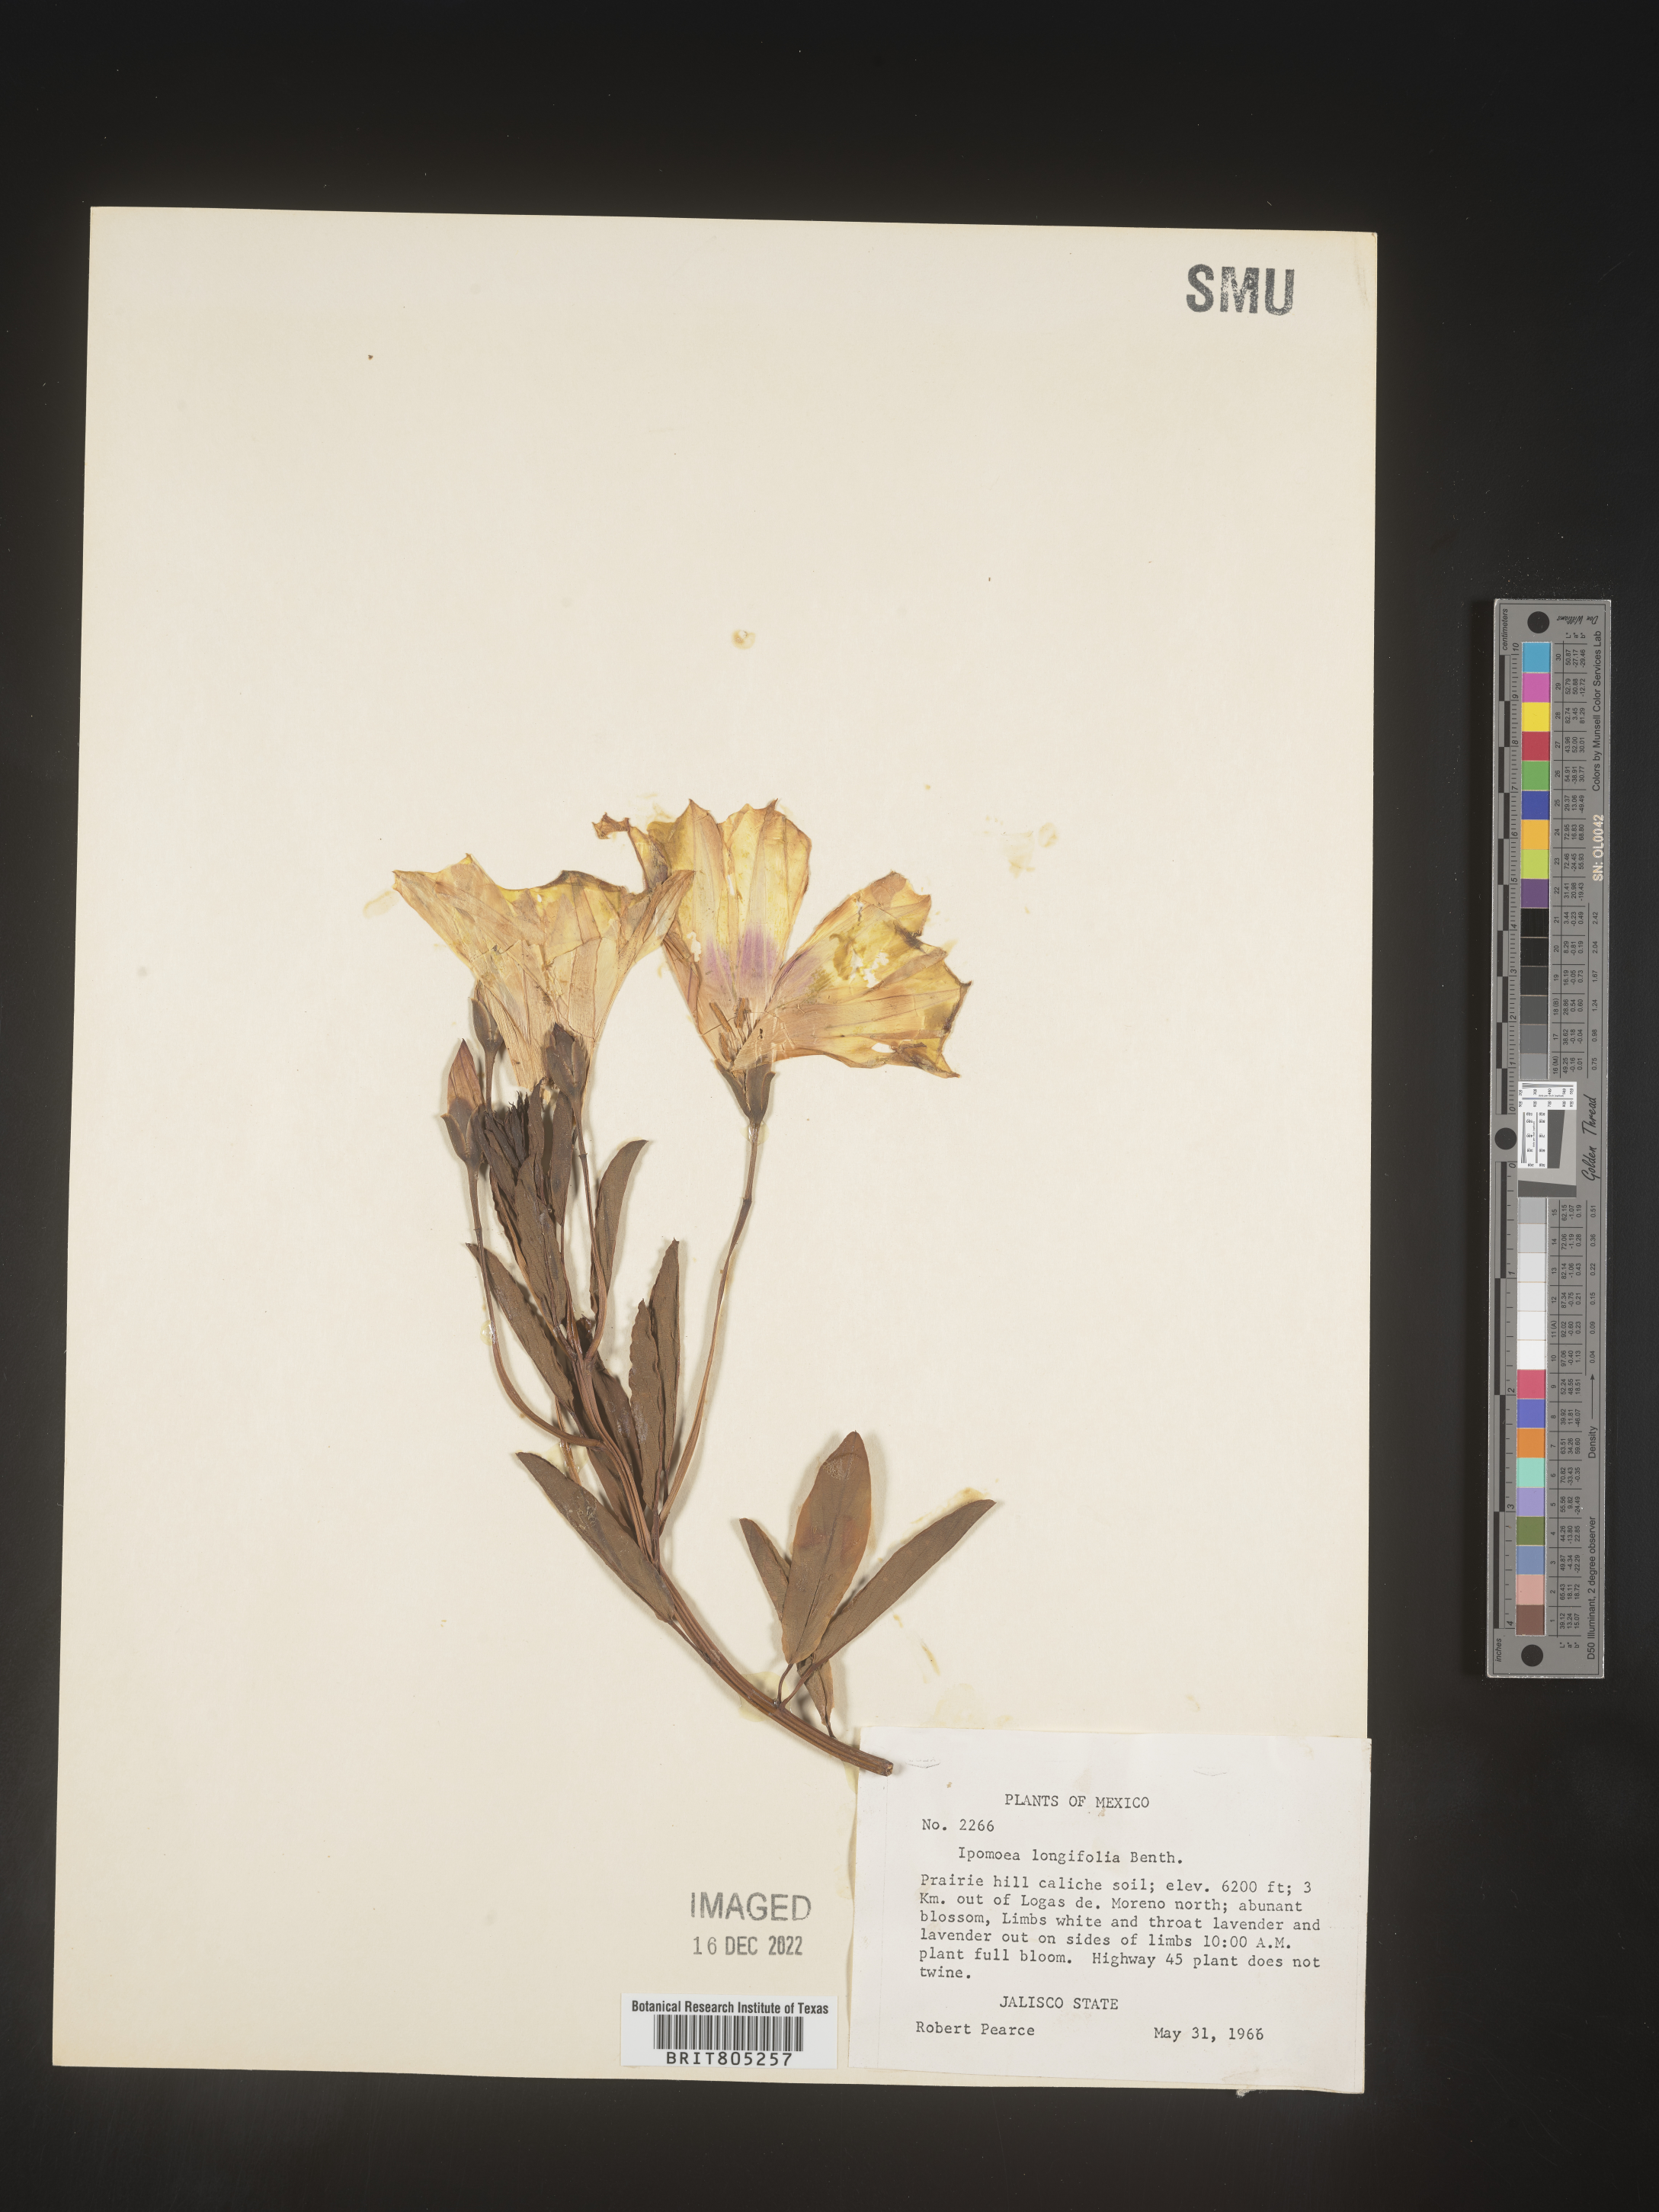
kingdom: Plantae
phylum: Tracheophyta
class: Magnoliopsida
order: Solanales
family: Convolvulaceae
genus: Ipomoea
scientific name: Ipomoea
